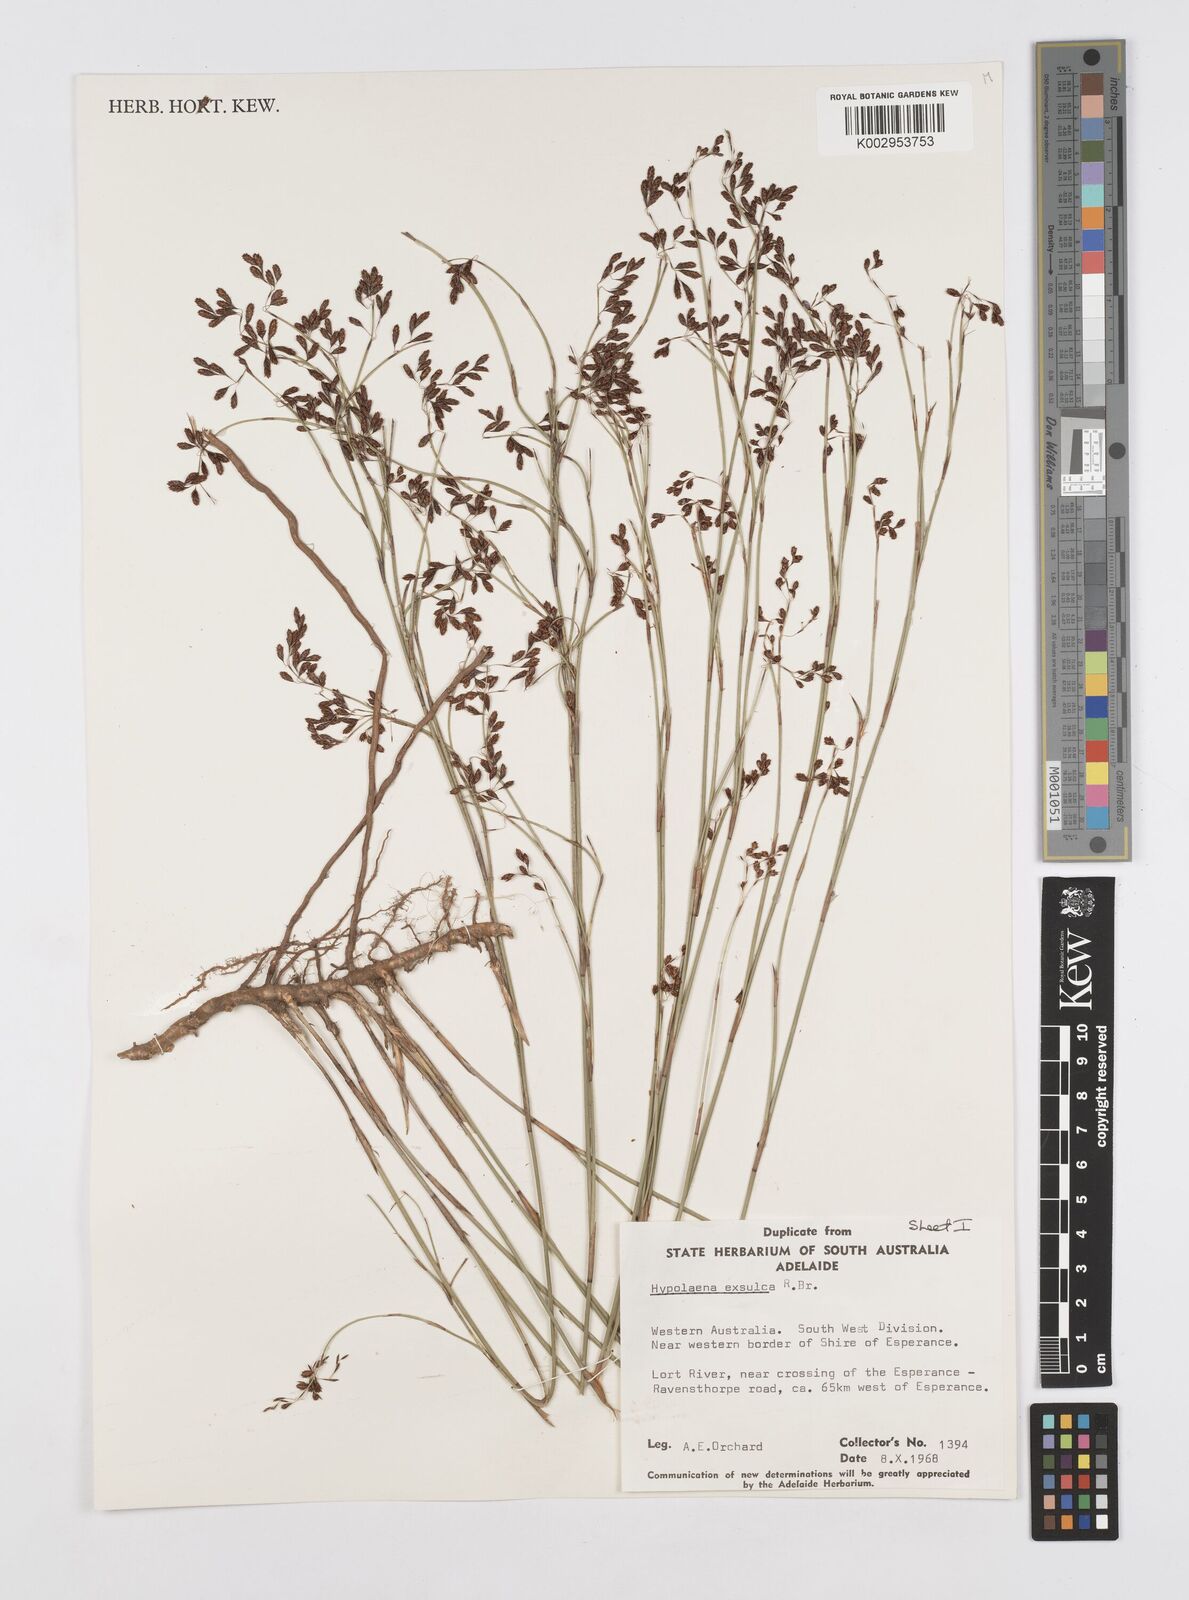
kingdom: Plantae
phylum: Tracheophyta
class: Liliopsida
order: Poales
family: Restionaceae
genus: Hypolaena
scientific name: Hypolaena exsulca
